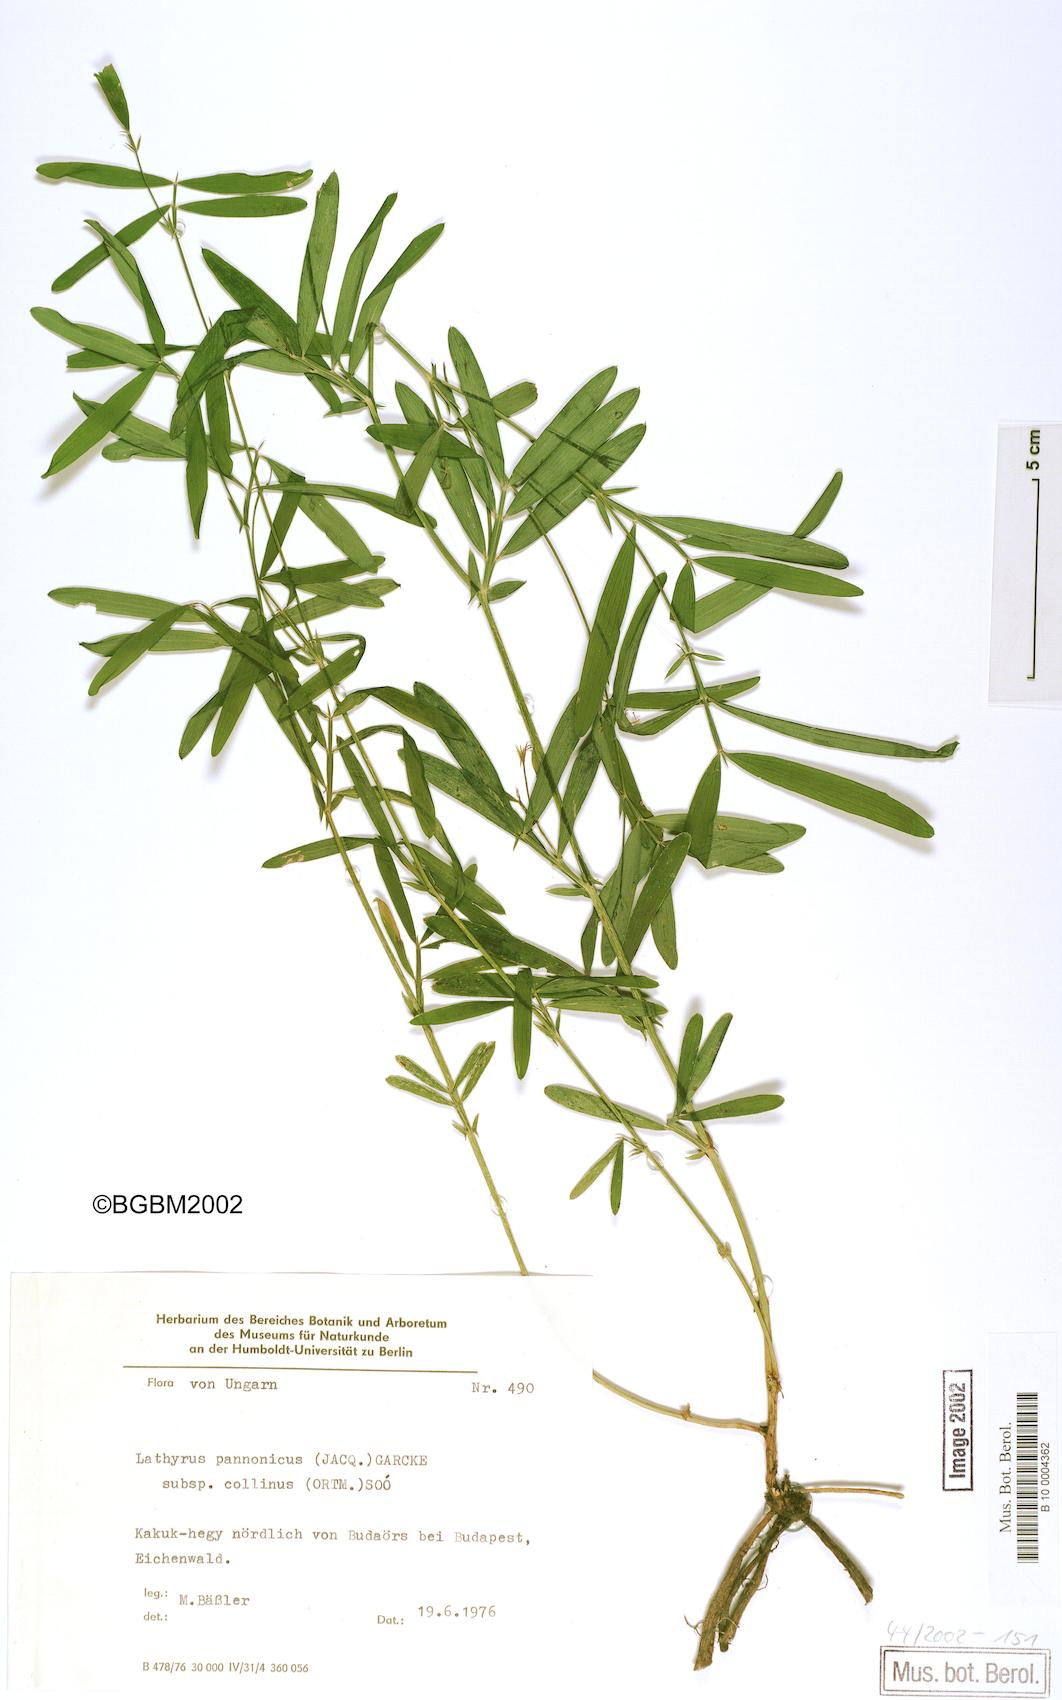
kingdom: Plantae
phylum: Tracheophyta
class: Magnoliopsida
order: Fabales
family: Fabaceae
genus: Lathyrus
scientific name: Lathyrus pannonicus
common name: Pea
